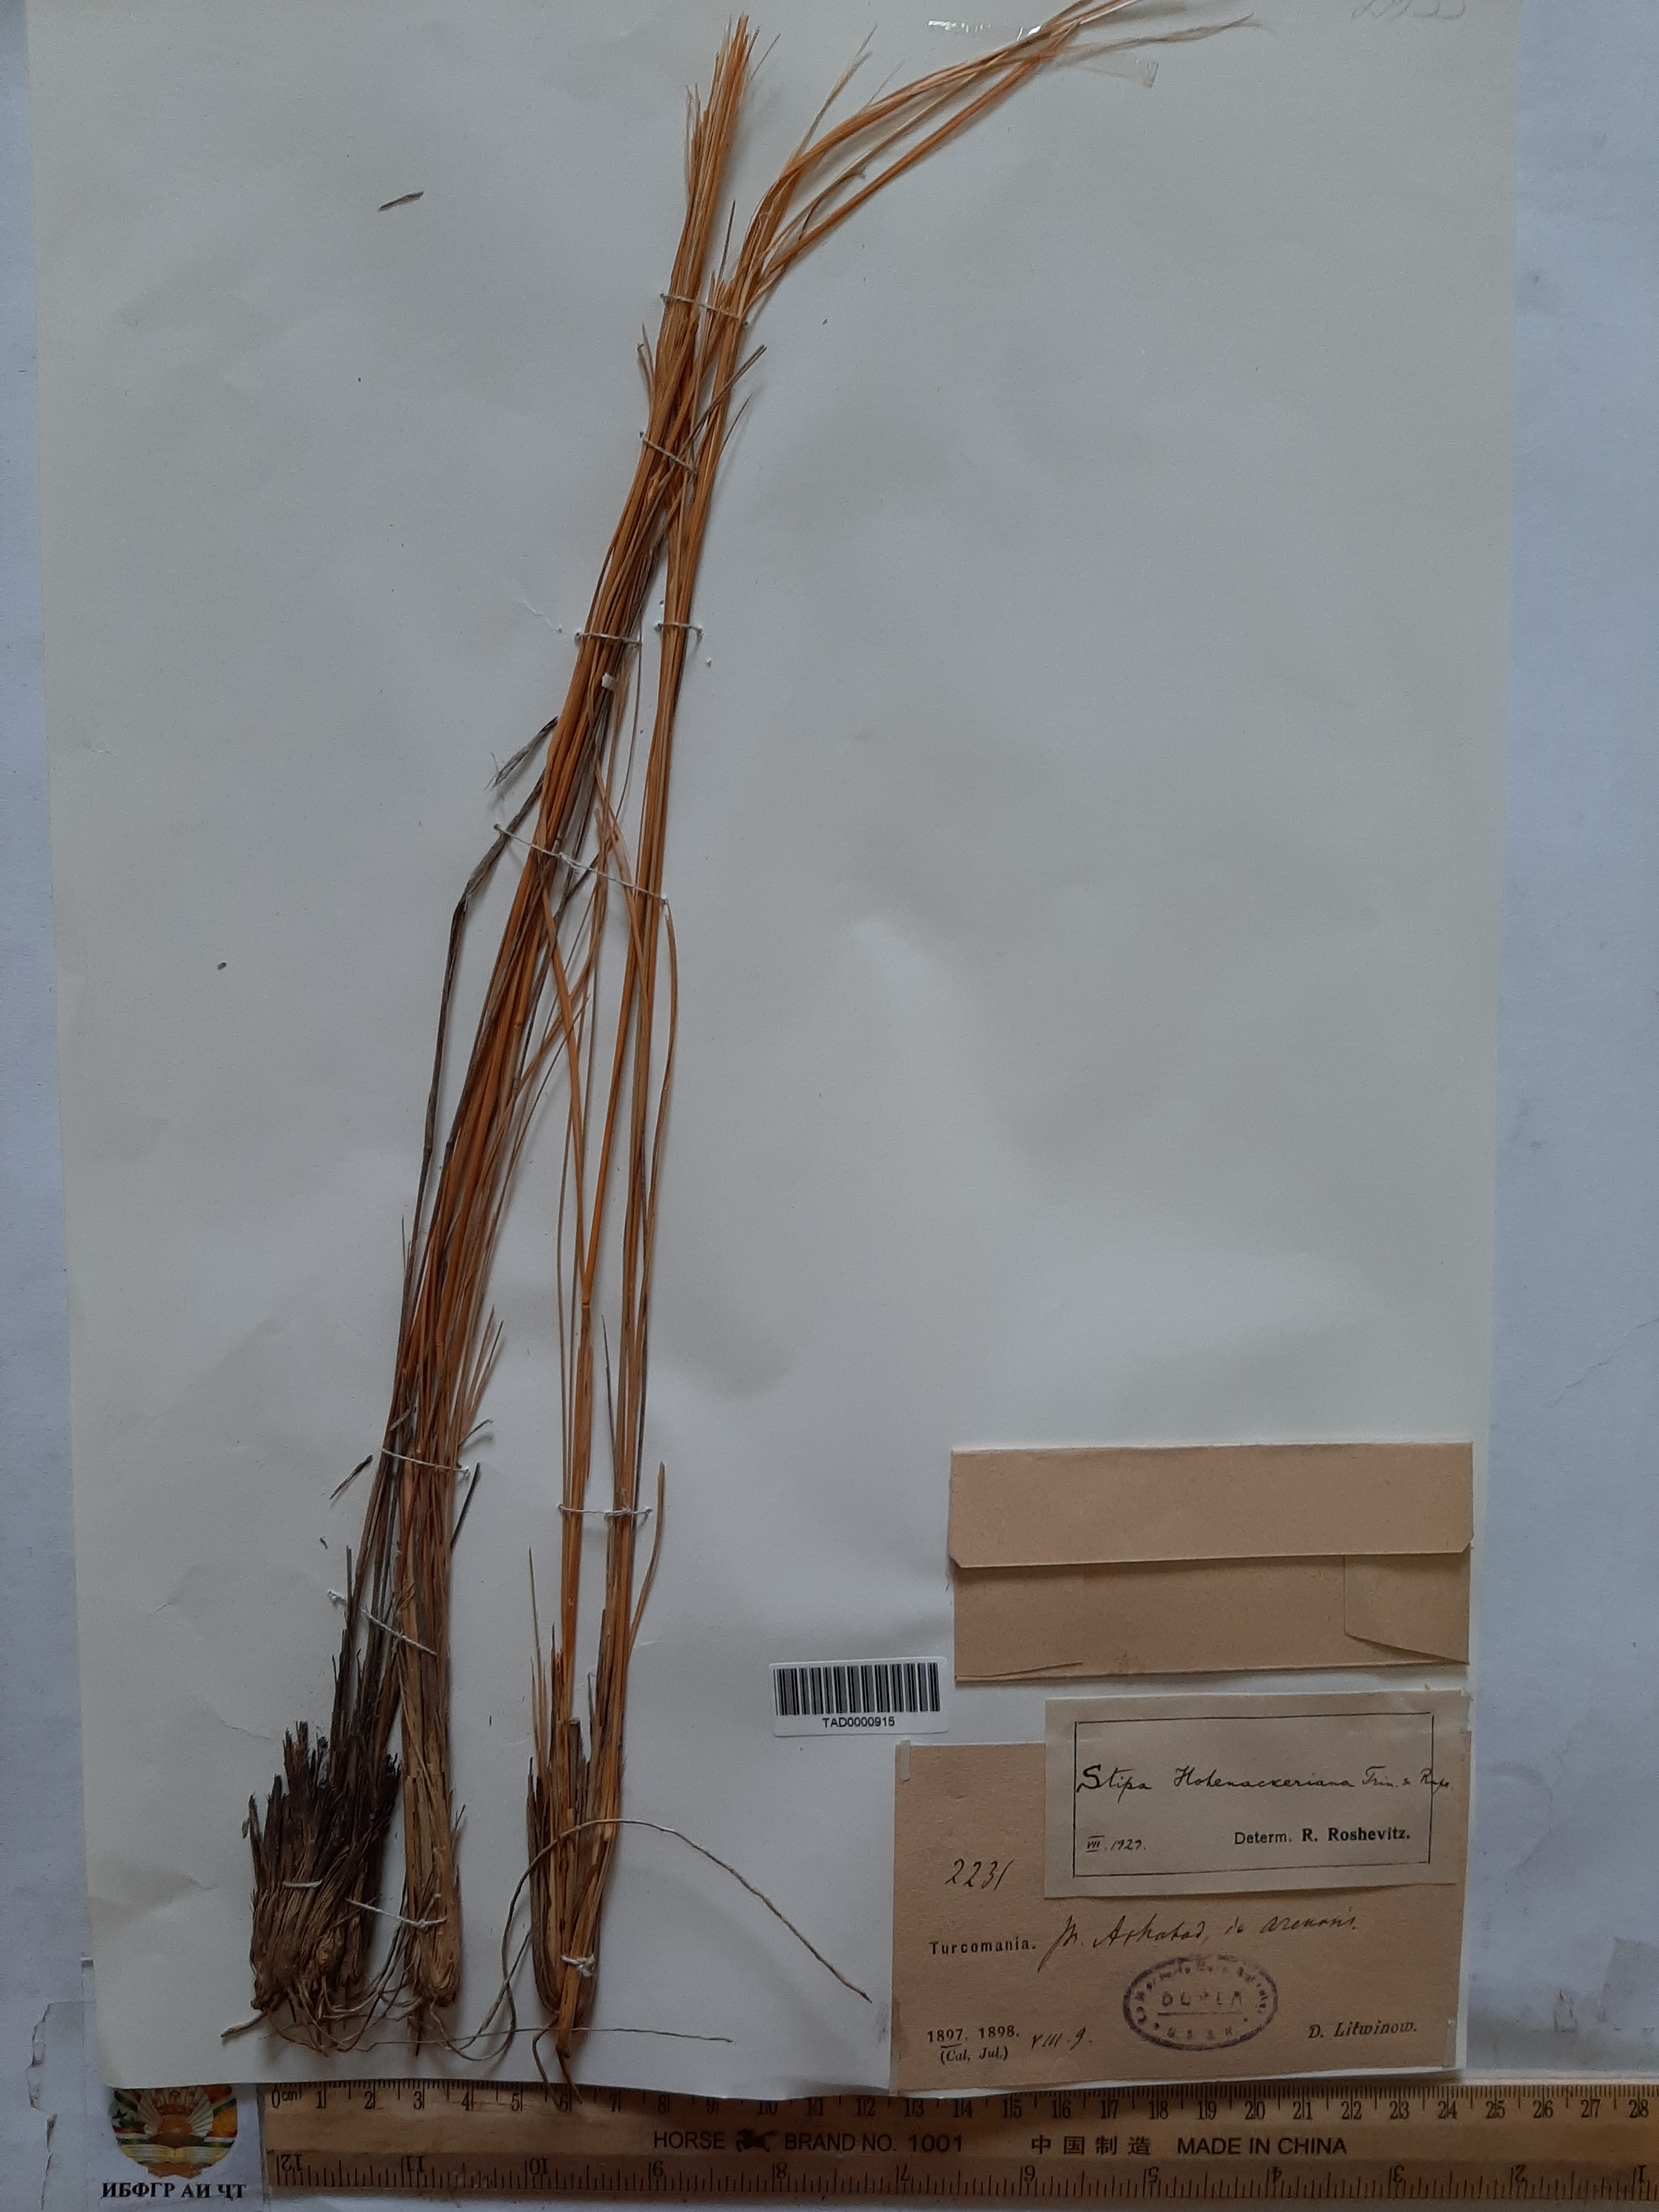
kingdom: Plantae
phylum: Tracheophyta
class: Liliopsida
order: Poales
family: Poaceae
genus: Stipa
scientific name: Stipa hohenackeriana
